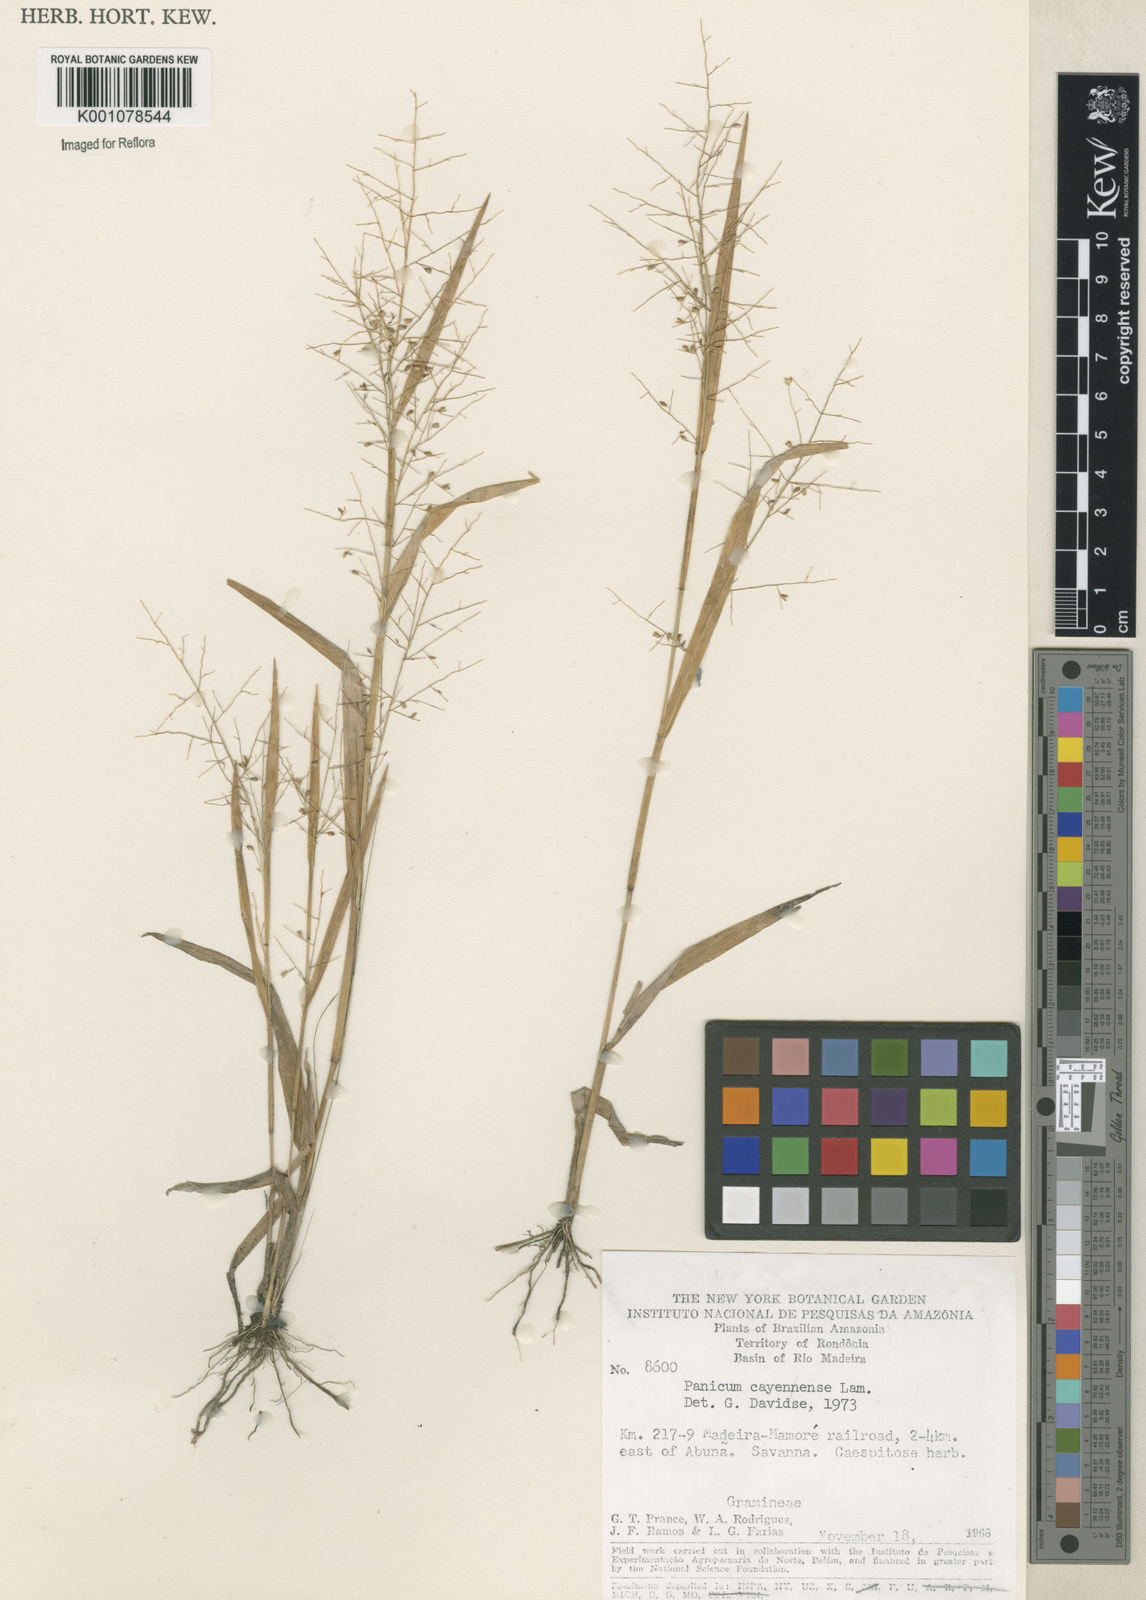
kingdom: Plantae
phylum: Tracheophyta
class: Liliopsida
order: Poales
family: Poaceae
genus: Panicum
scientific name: Panicum cayennense
